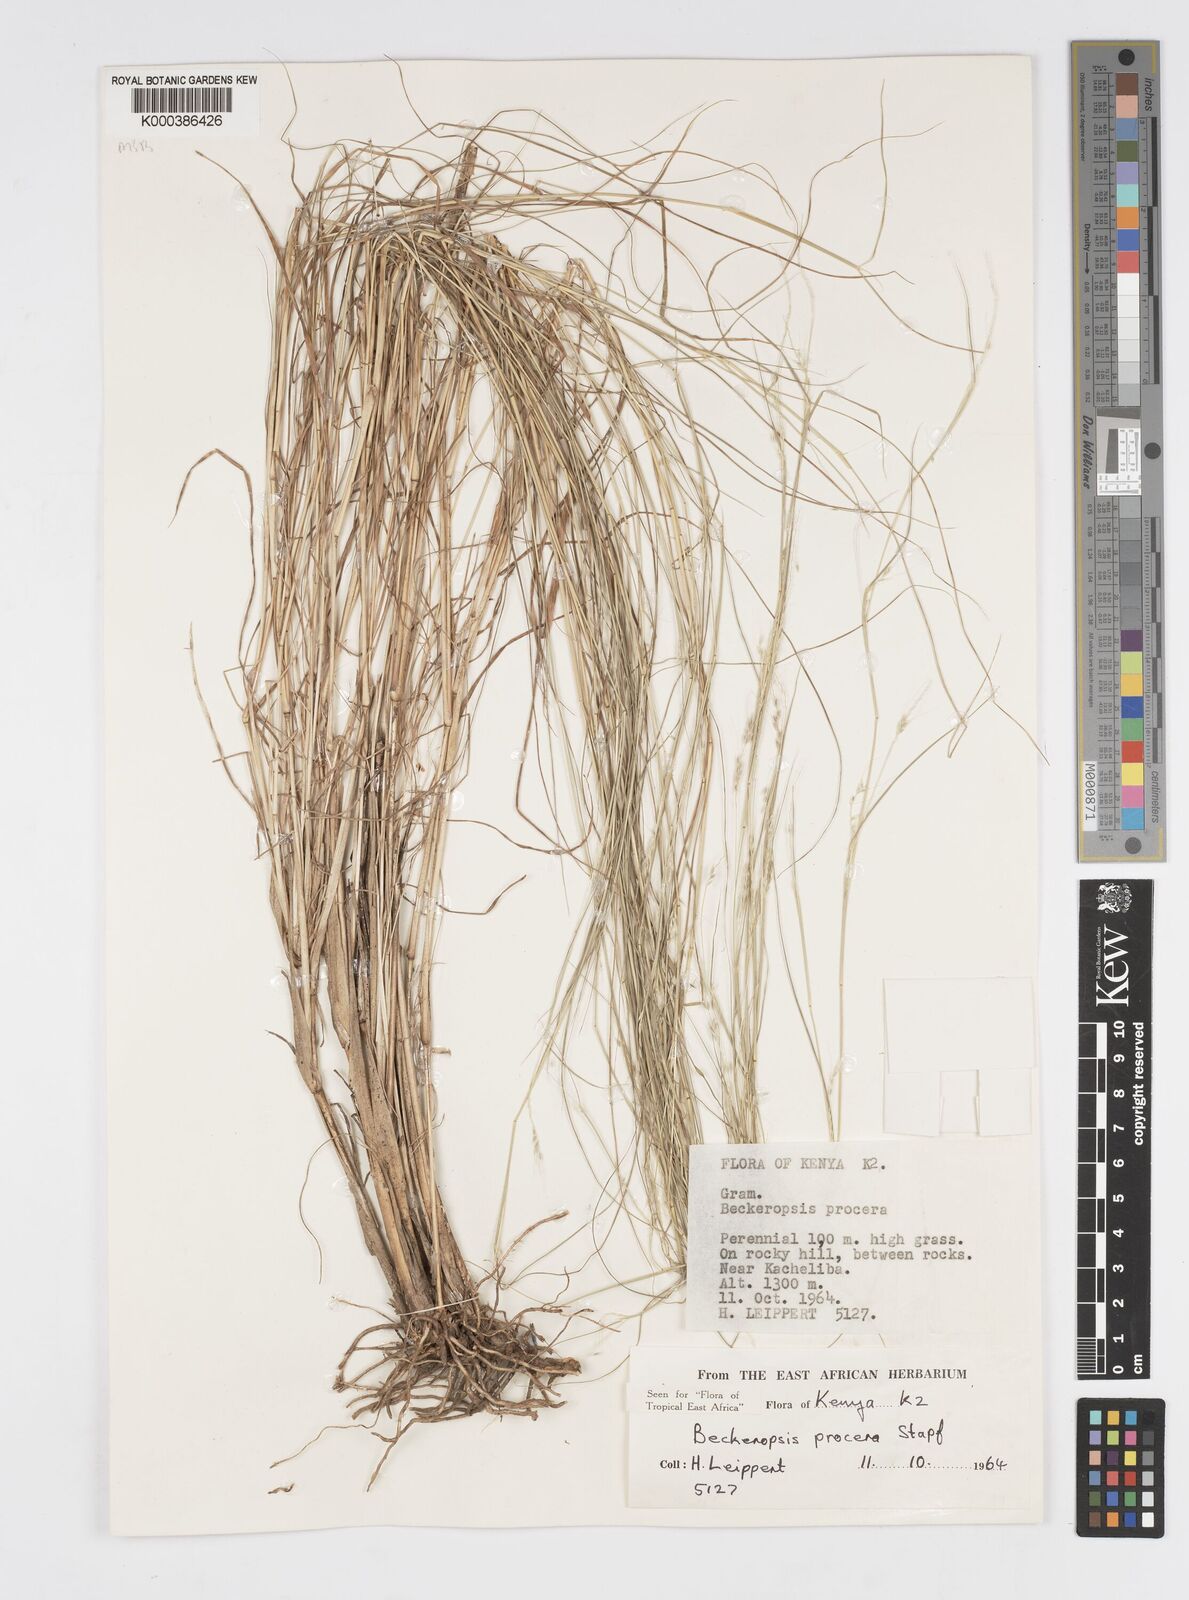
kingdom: Plantae
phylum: Tracheophyta
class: Liliopsida
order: Poales
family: Poaceae
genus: Cenchrus
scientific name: Cenchrus procerus
